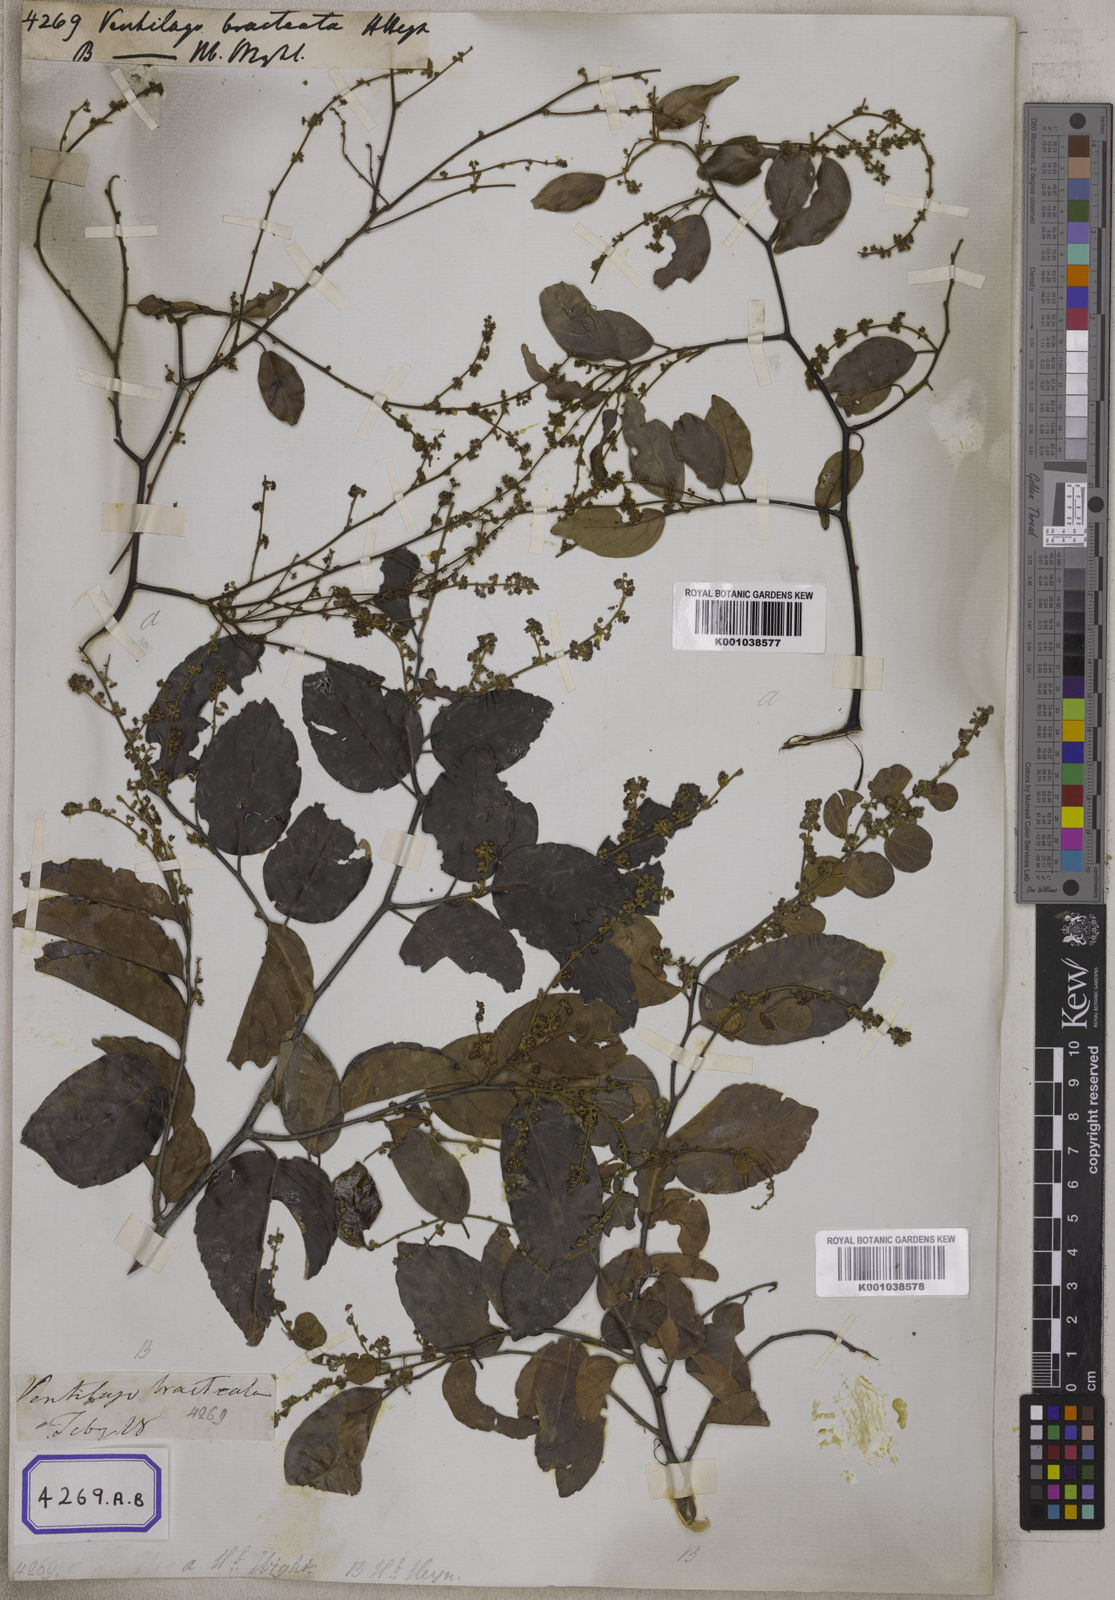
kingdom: Plantae
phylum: Tracheophyta
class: Magnoliopsida
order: Rosales
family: Rhamnaceae
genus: Ventilago
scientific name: Ventilago madraspatana
